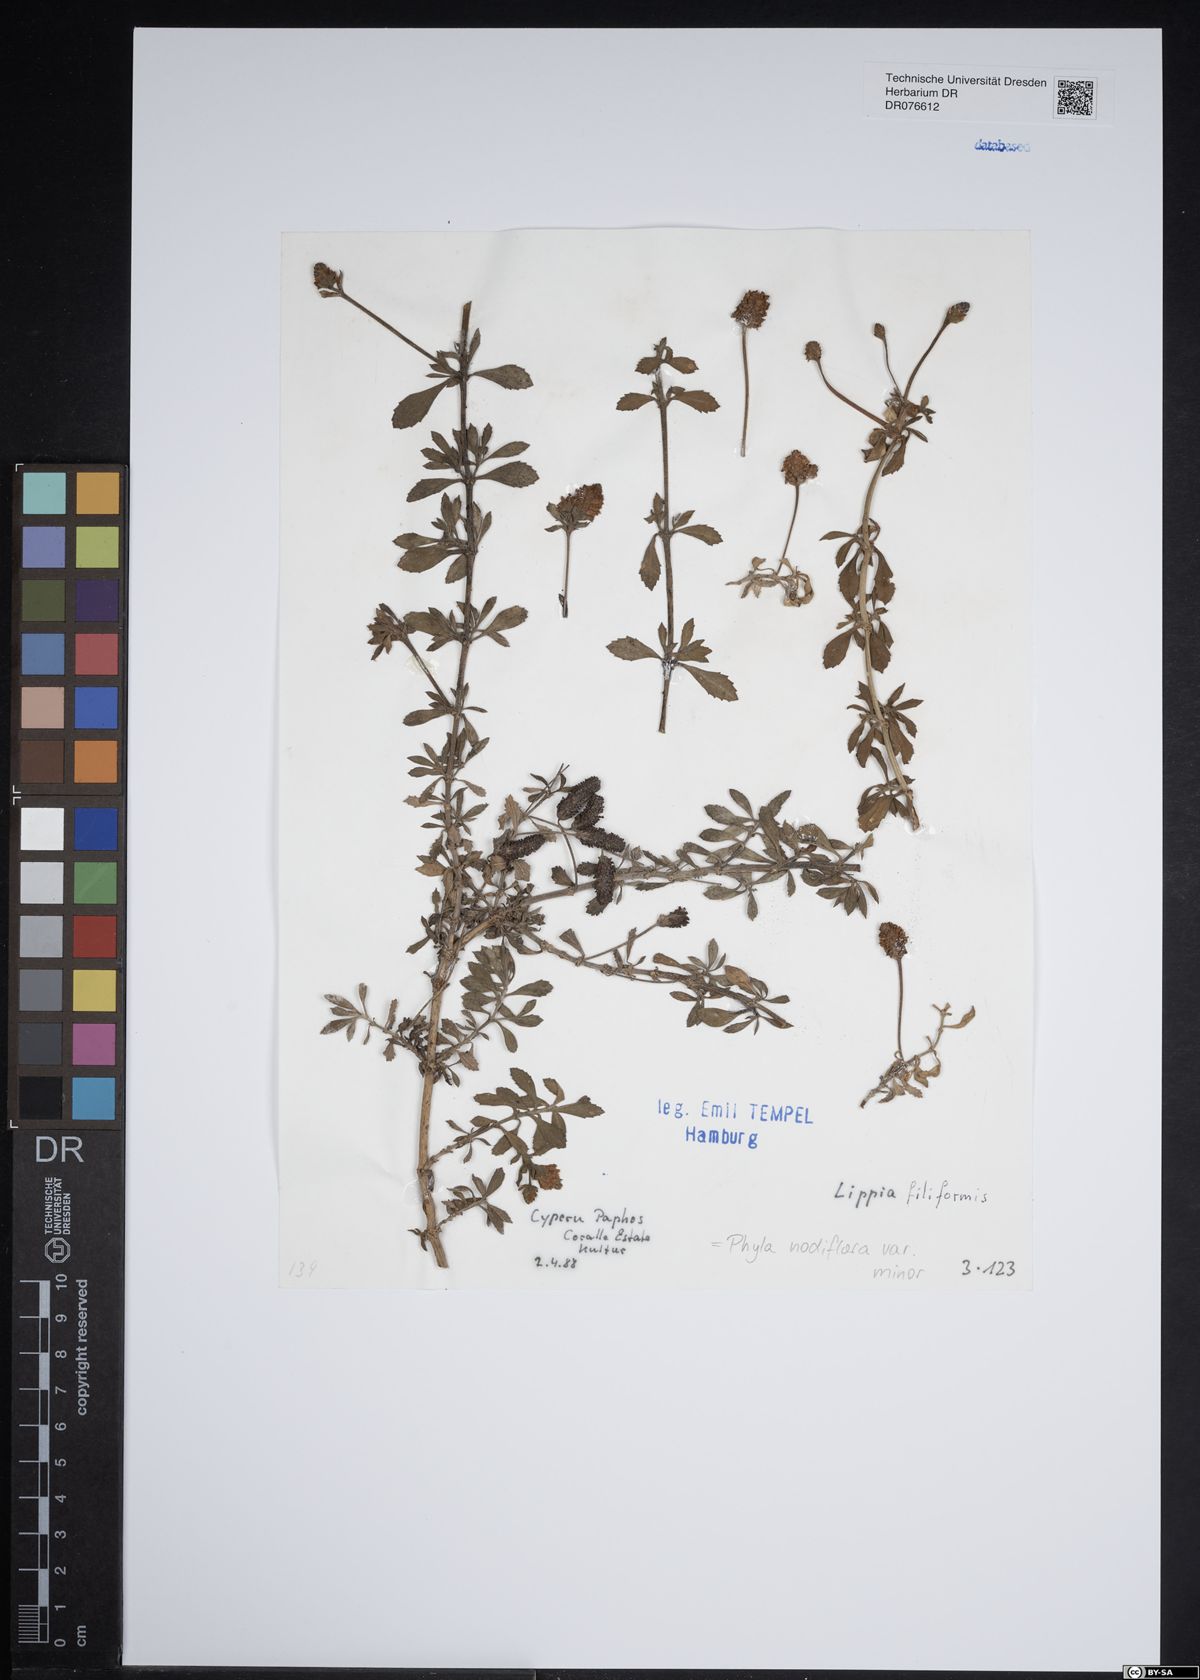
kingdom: Plantae
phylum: Tracheophyta
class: Magnoliopsida
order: Lamiales
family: Verbenaceae
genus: Phyla
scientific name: Phyla nodiflora
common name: Frogfruit
